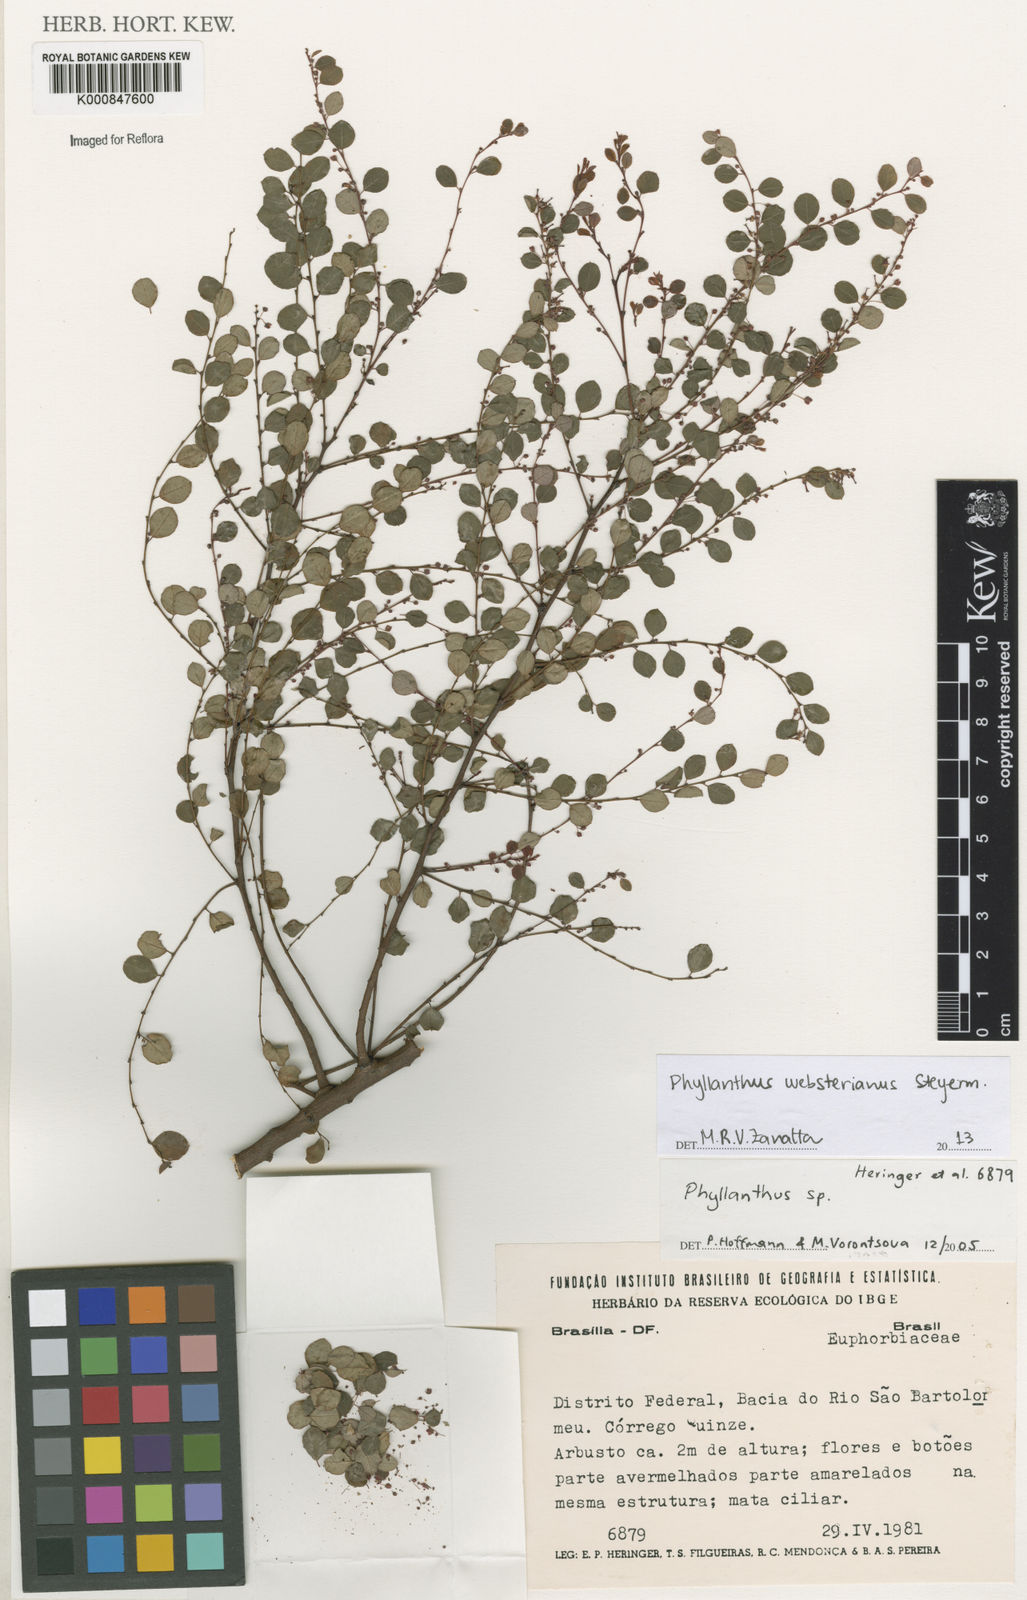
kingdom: Plantae
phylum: Tracheophyta
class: Magnoliopsida
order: Malpighiales
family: Phyllanthaceae
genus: Phyllanthus
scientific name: Phyllanthus websterianus
